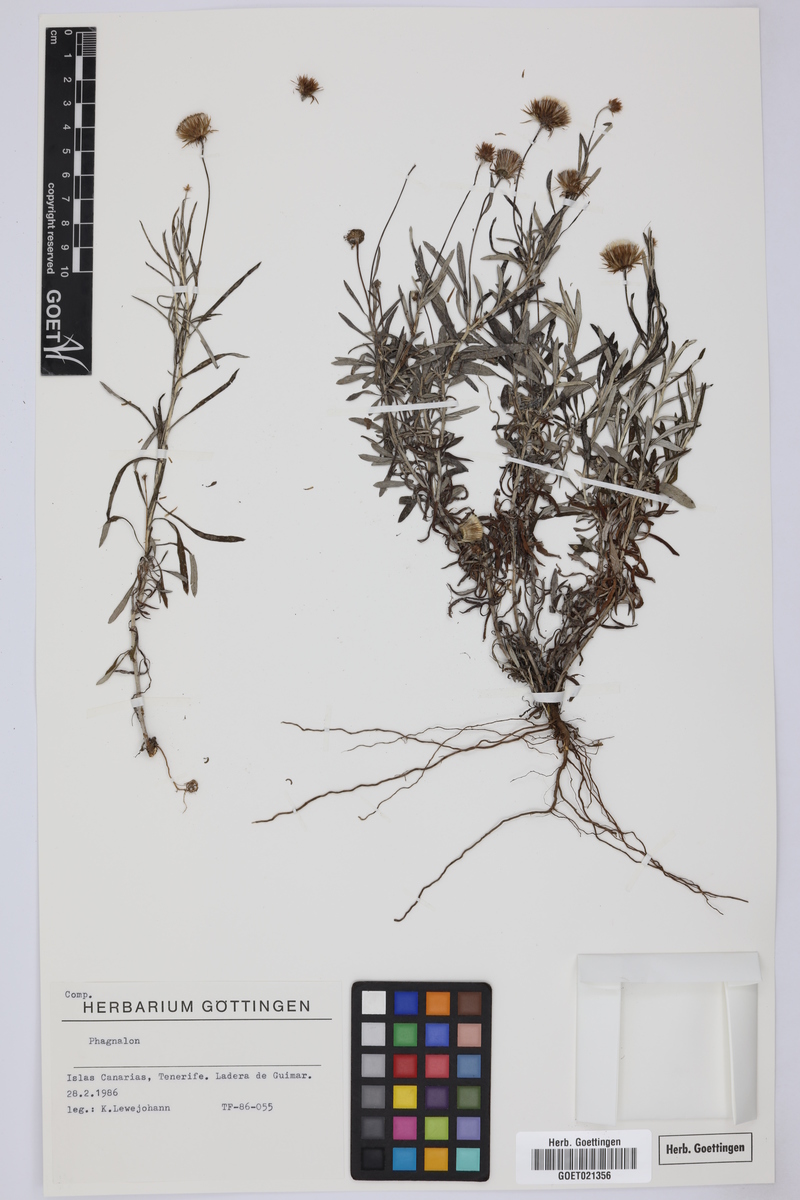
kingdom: Plantae
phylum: Tracheophyta
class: Magnoliopsida
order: Asterales
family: Asteraceae
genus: Phagnalon
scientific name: Phagnalon
